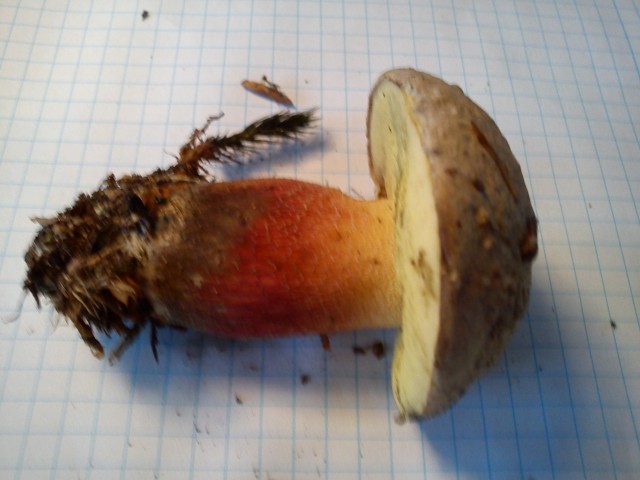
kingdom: Fungi
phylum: Basidiomycota
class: Agaricomycetes
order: Boletales
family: Boletaceae
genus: Caloboletus
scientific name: Caloboletus calopus
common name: skønfodet rørhat
